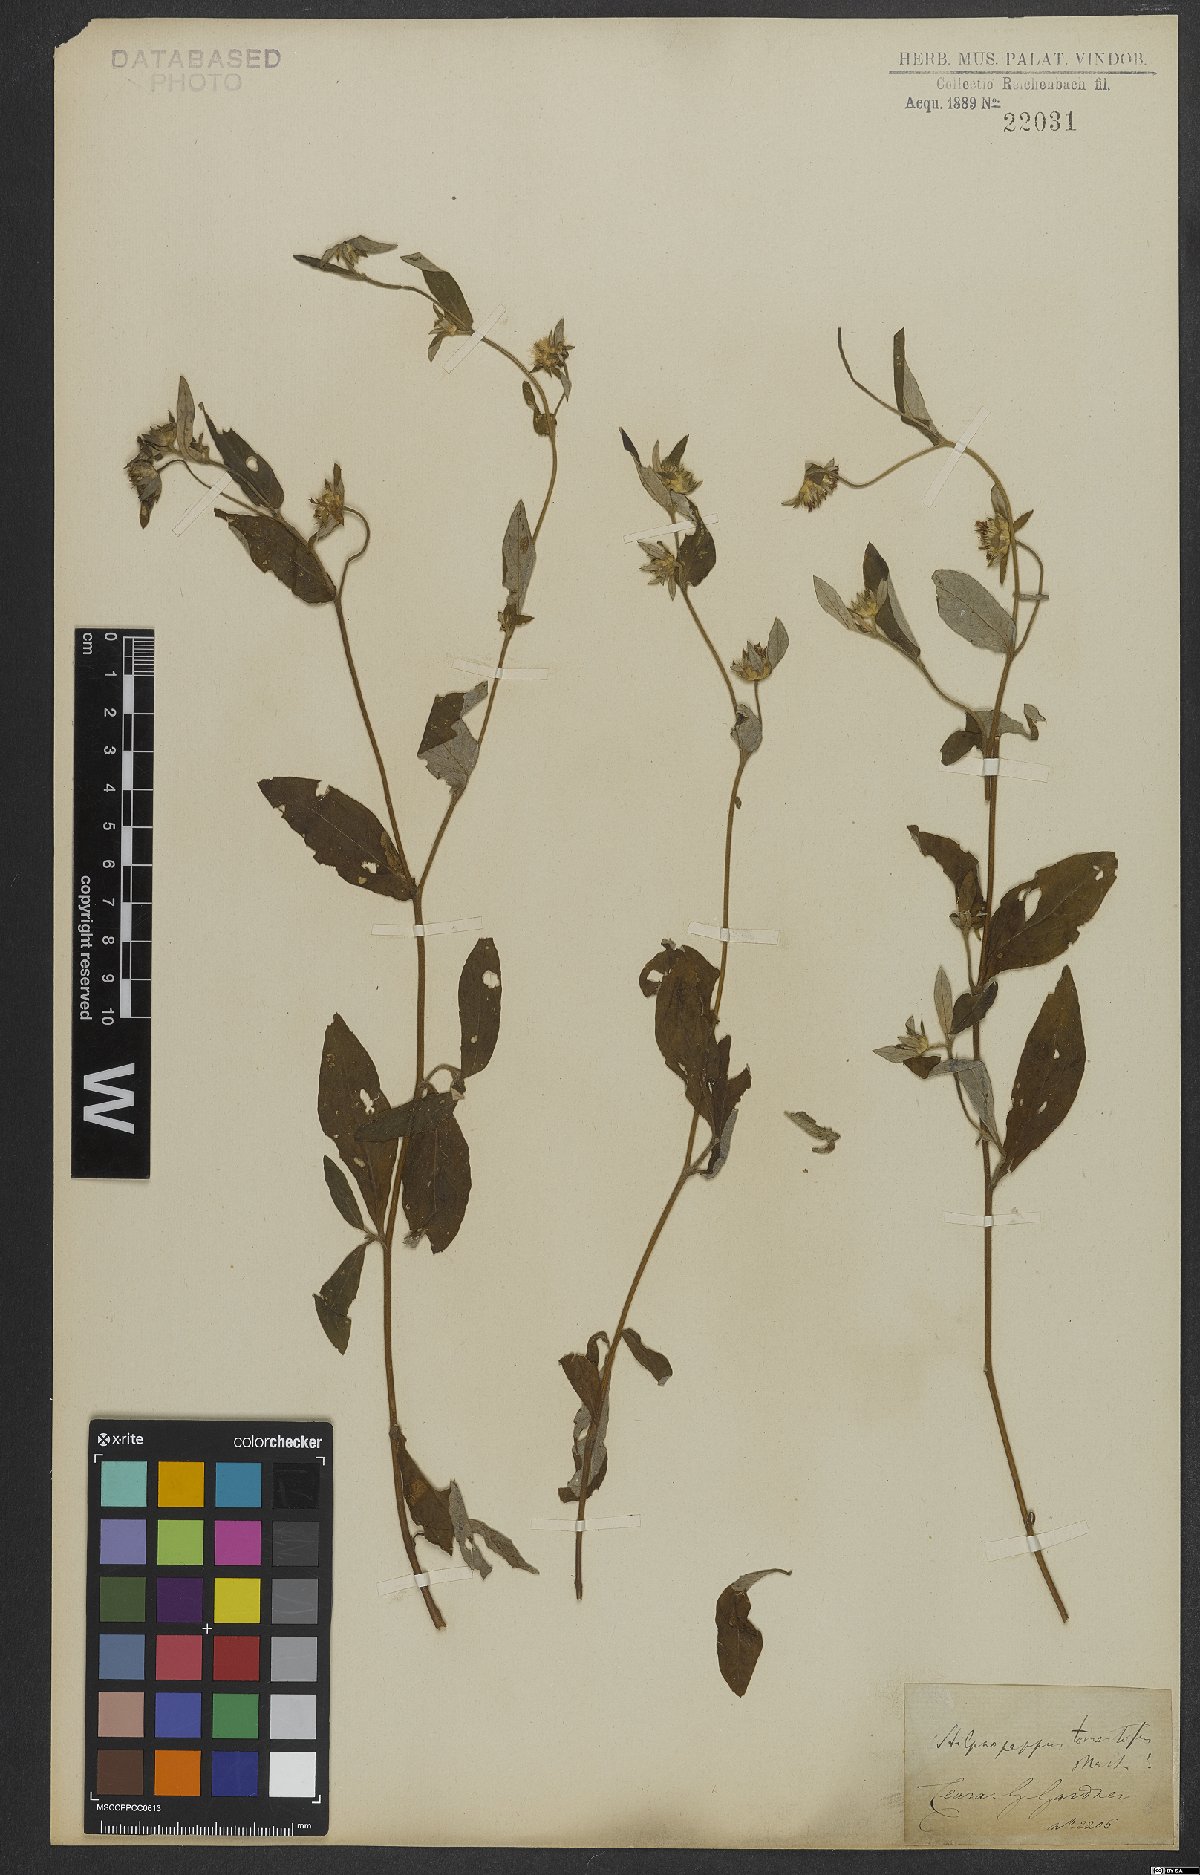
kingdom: Plantae
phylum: Tracheophyta
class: Magnoliopsida
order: Asterales
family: Asteraceae
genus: Stilpnopappus
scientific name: Stilpnopappus tomentosus
